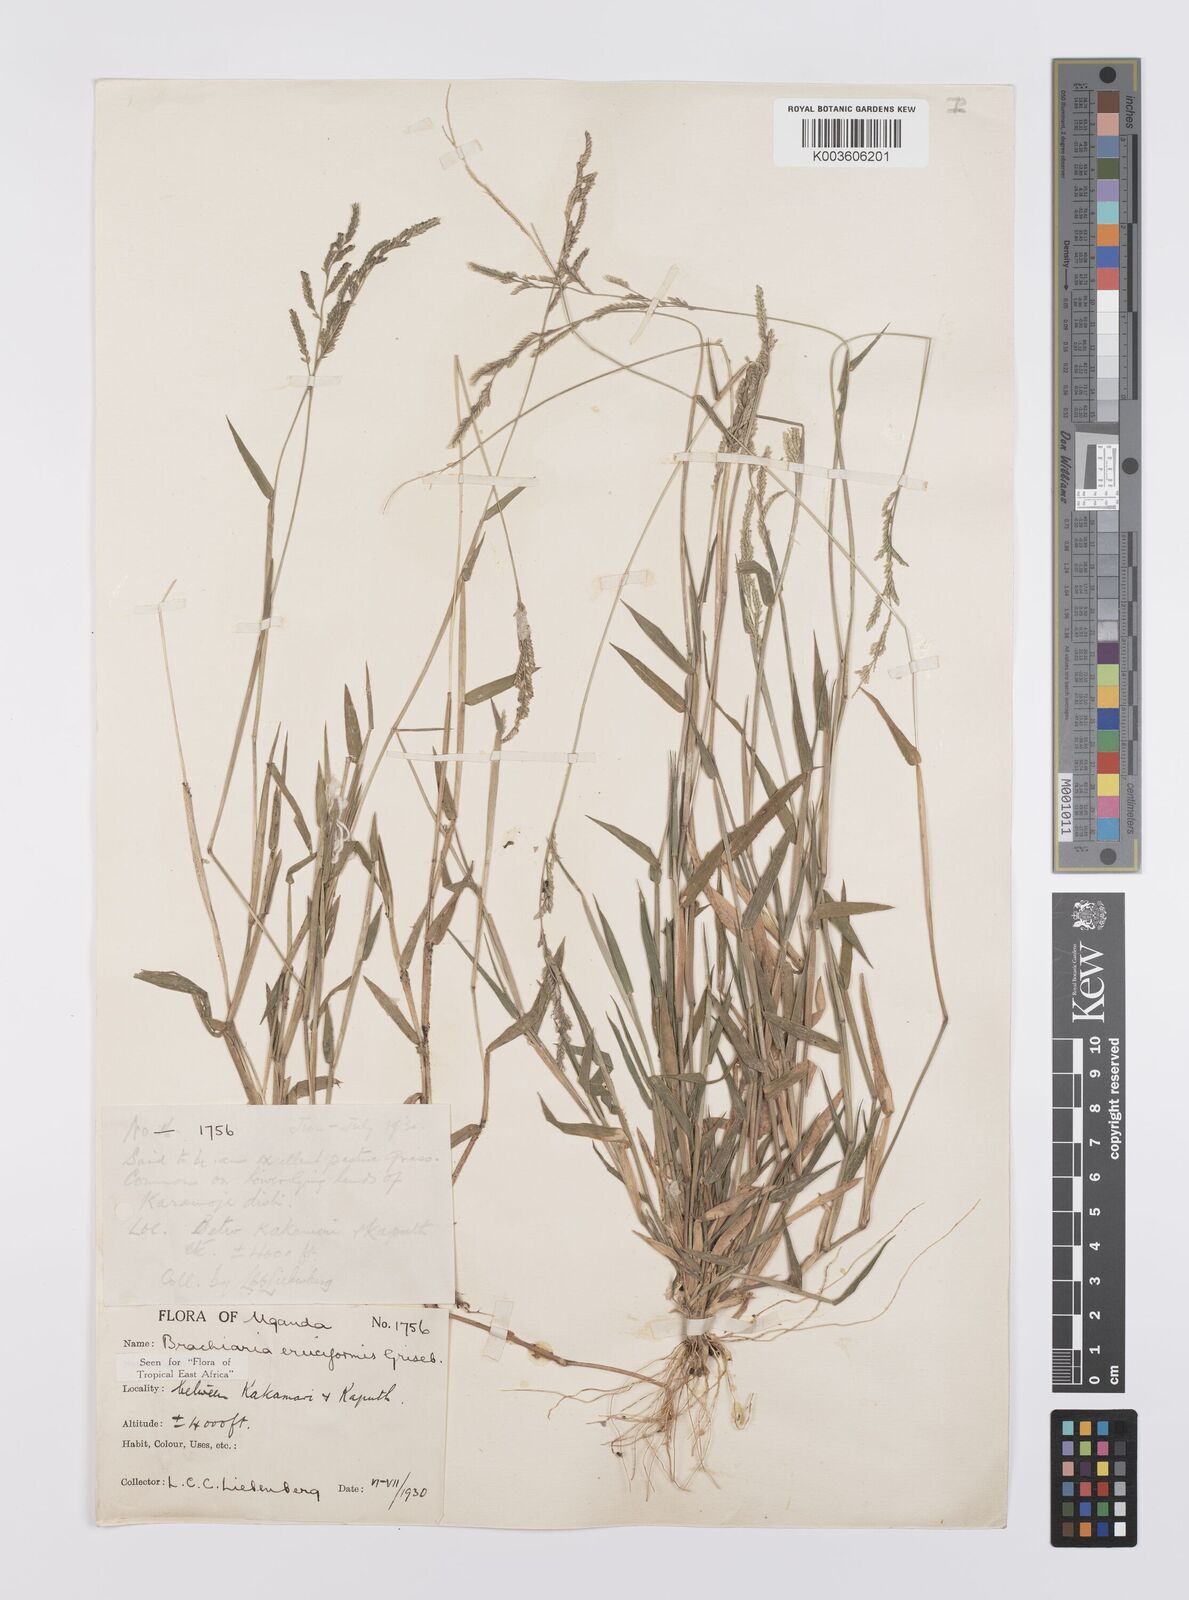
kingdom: Plantae
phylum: Tracheophyta
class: Liliopsida
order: Poales
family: Poaceae
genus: Moorochloa
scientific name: Moorochloa eruciformis
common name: Sweet signalgrass
